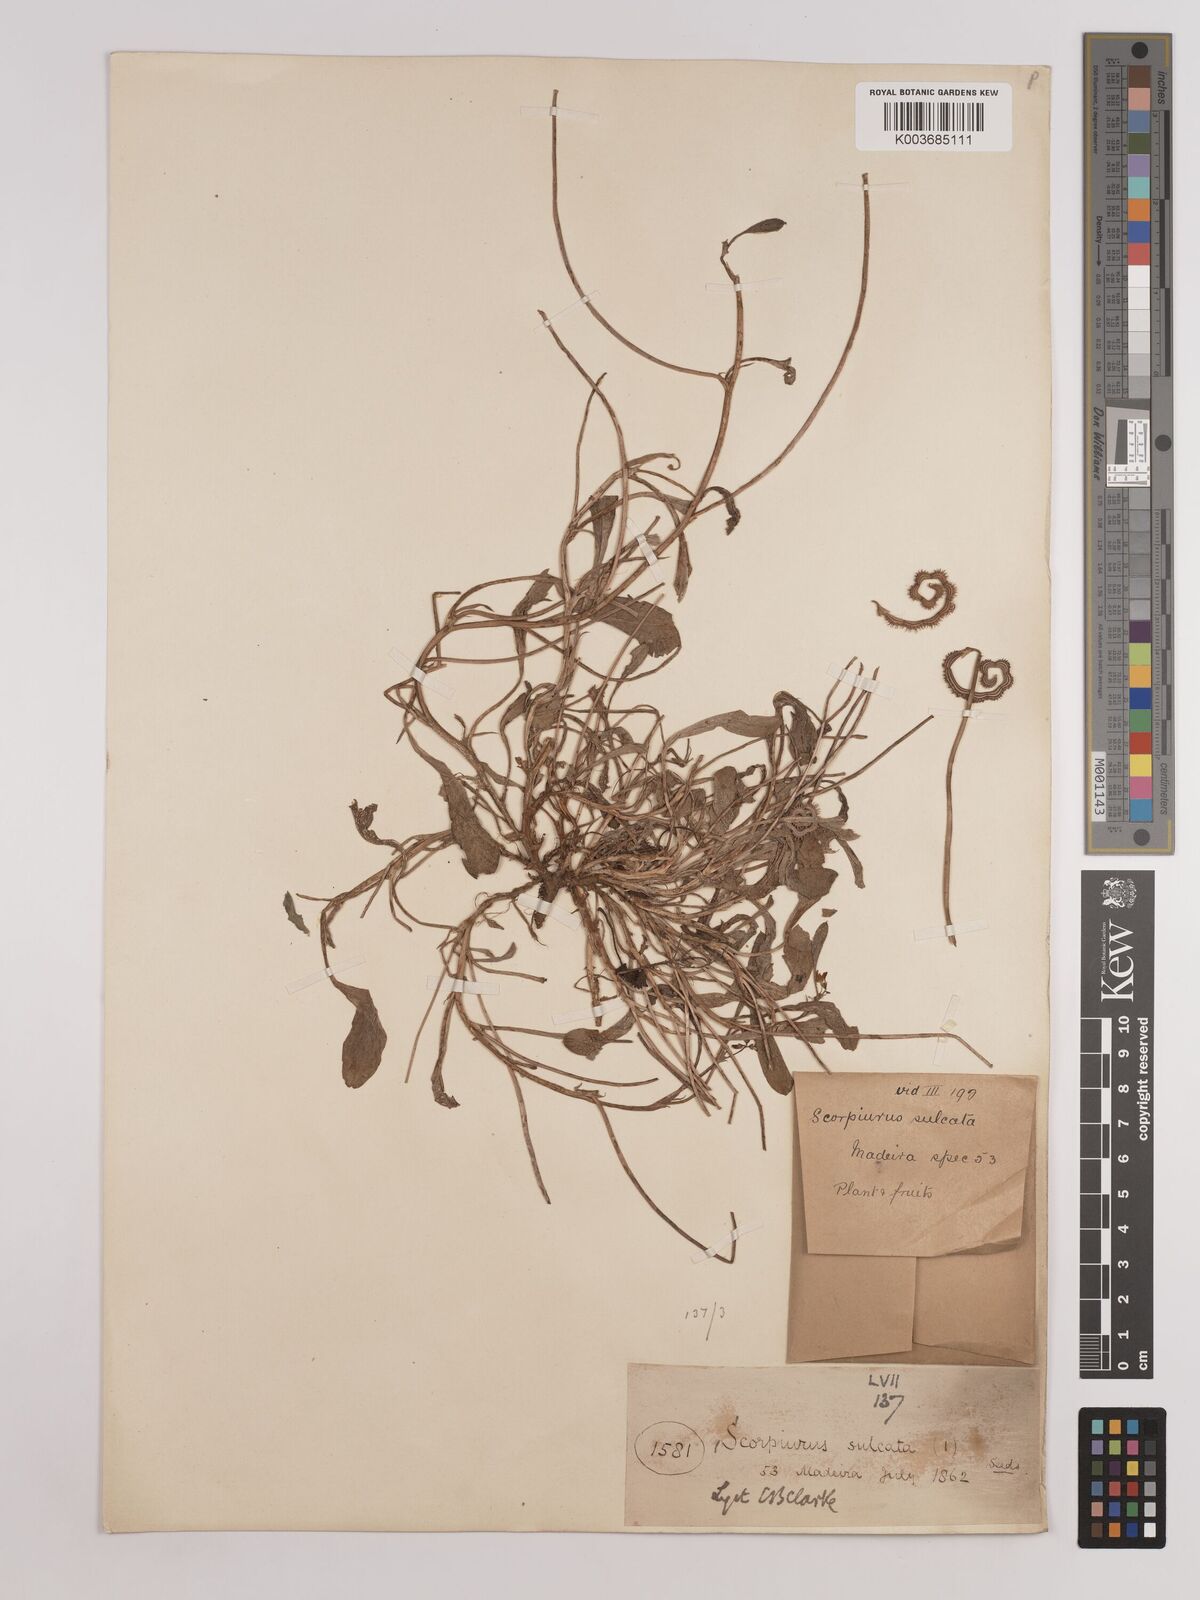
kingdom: Plantae
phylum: Tracheophyta
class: Magnoliopsida
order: Fabales
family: Fabaceae
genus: Scorpiurus
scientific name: Scorpiurus muricatus
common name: Caterpillar-plant
